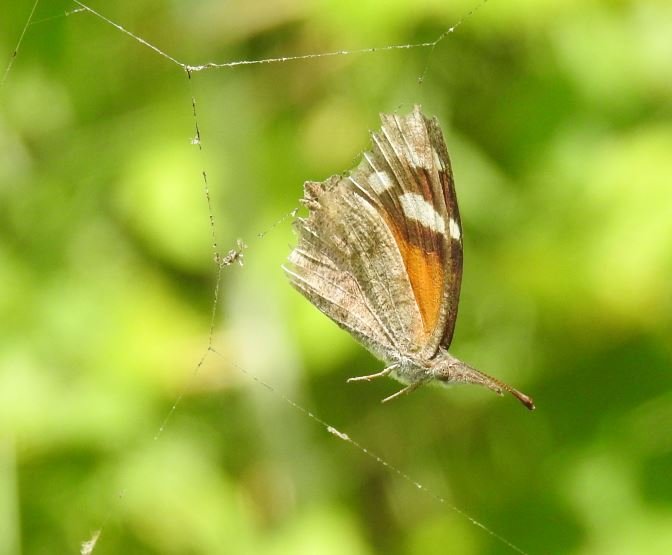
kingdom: Animalia
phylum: Arthropoda
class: Insecta
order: Lepidoptera
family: Nymphalidae
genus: Libytheana
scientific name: Libytheana carinenta
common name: American Snout
